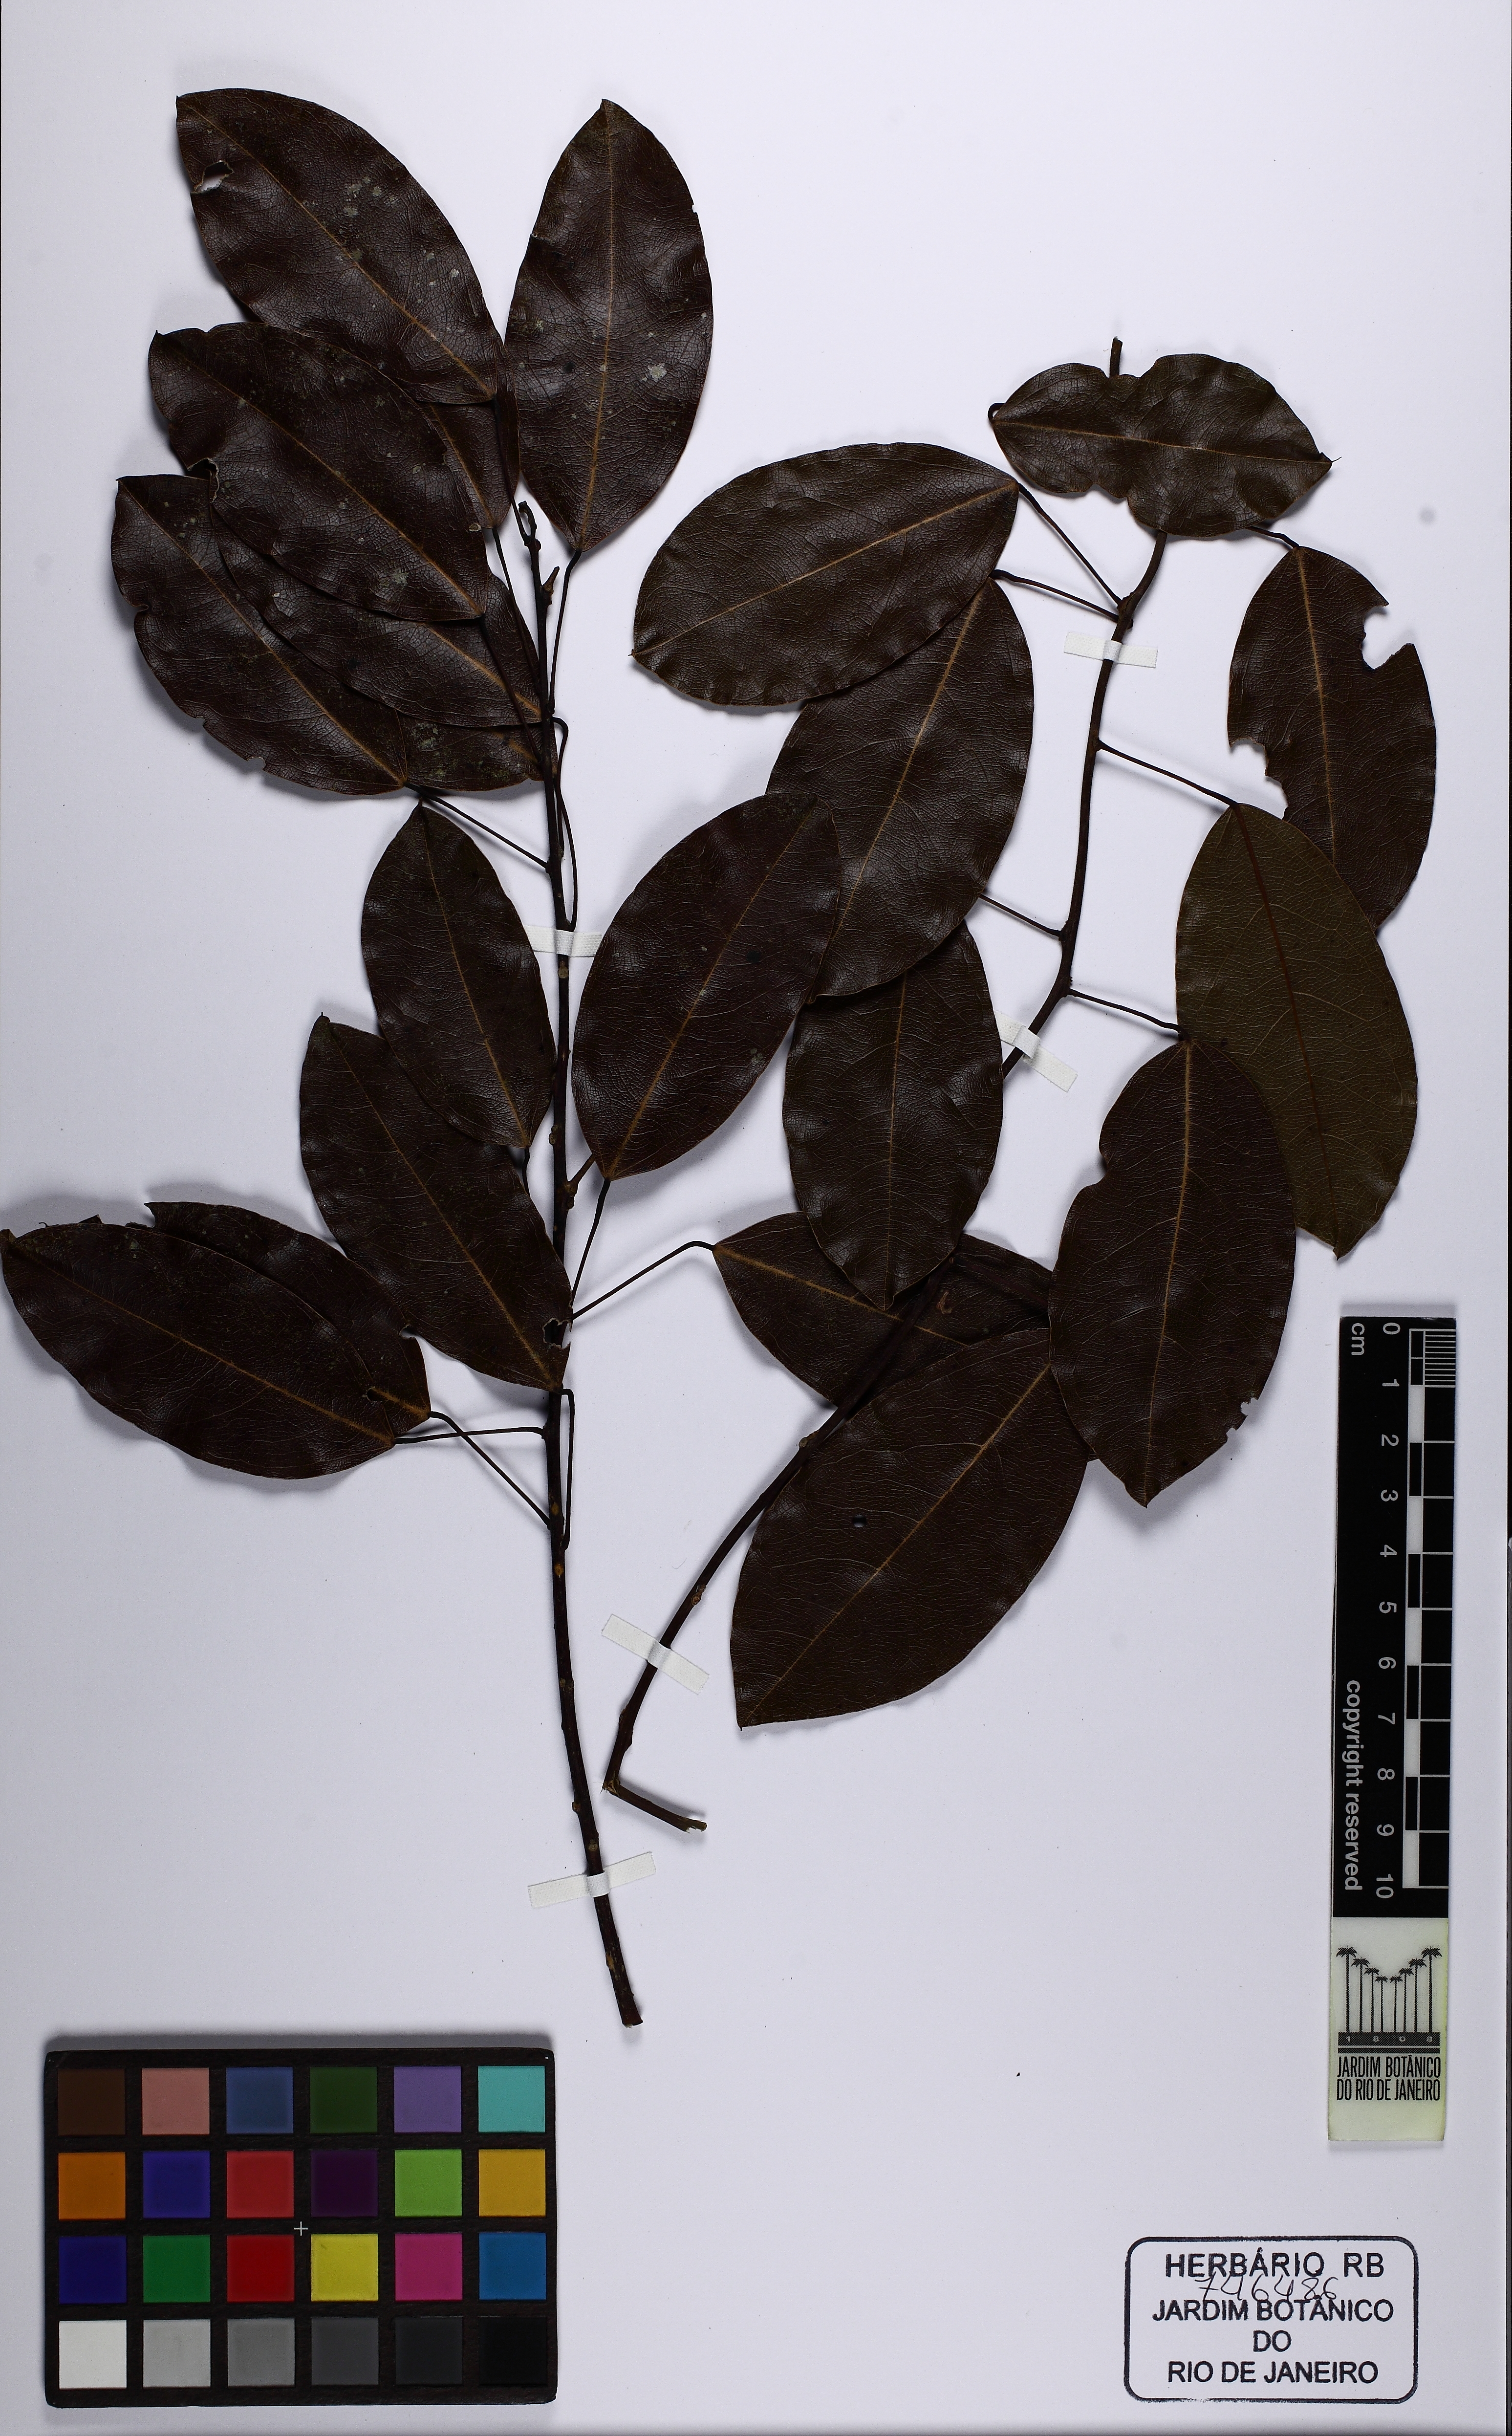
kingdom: Plantae
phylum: Tracheophyta
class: Magnoliopsida
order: Ranunculales
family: Menispermaceae
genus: Anomospermum
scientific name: Anomospermum reticulatum
